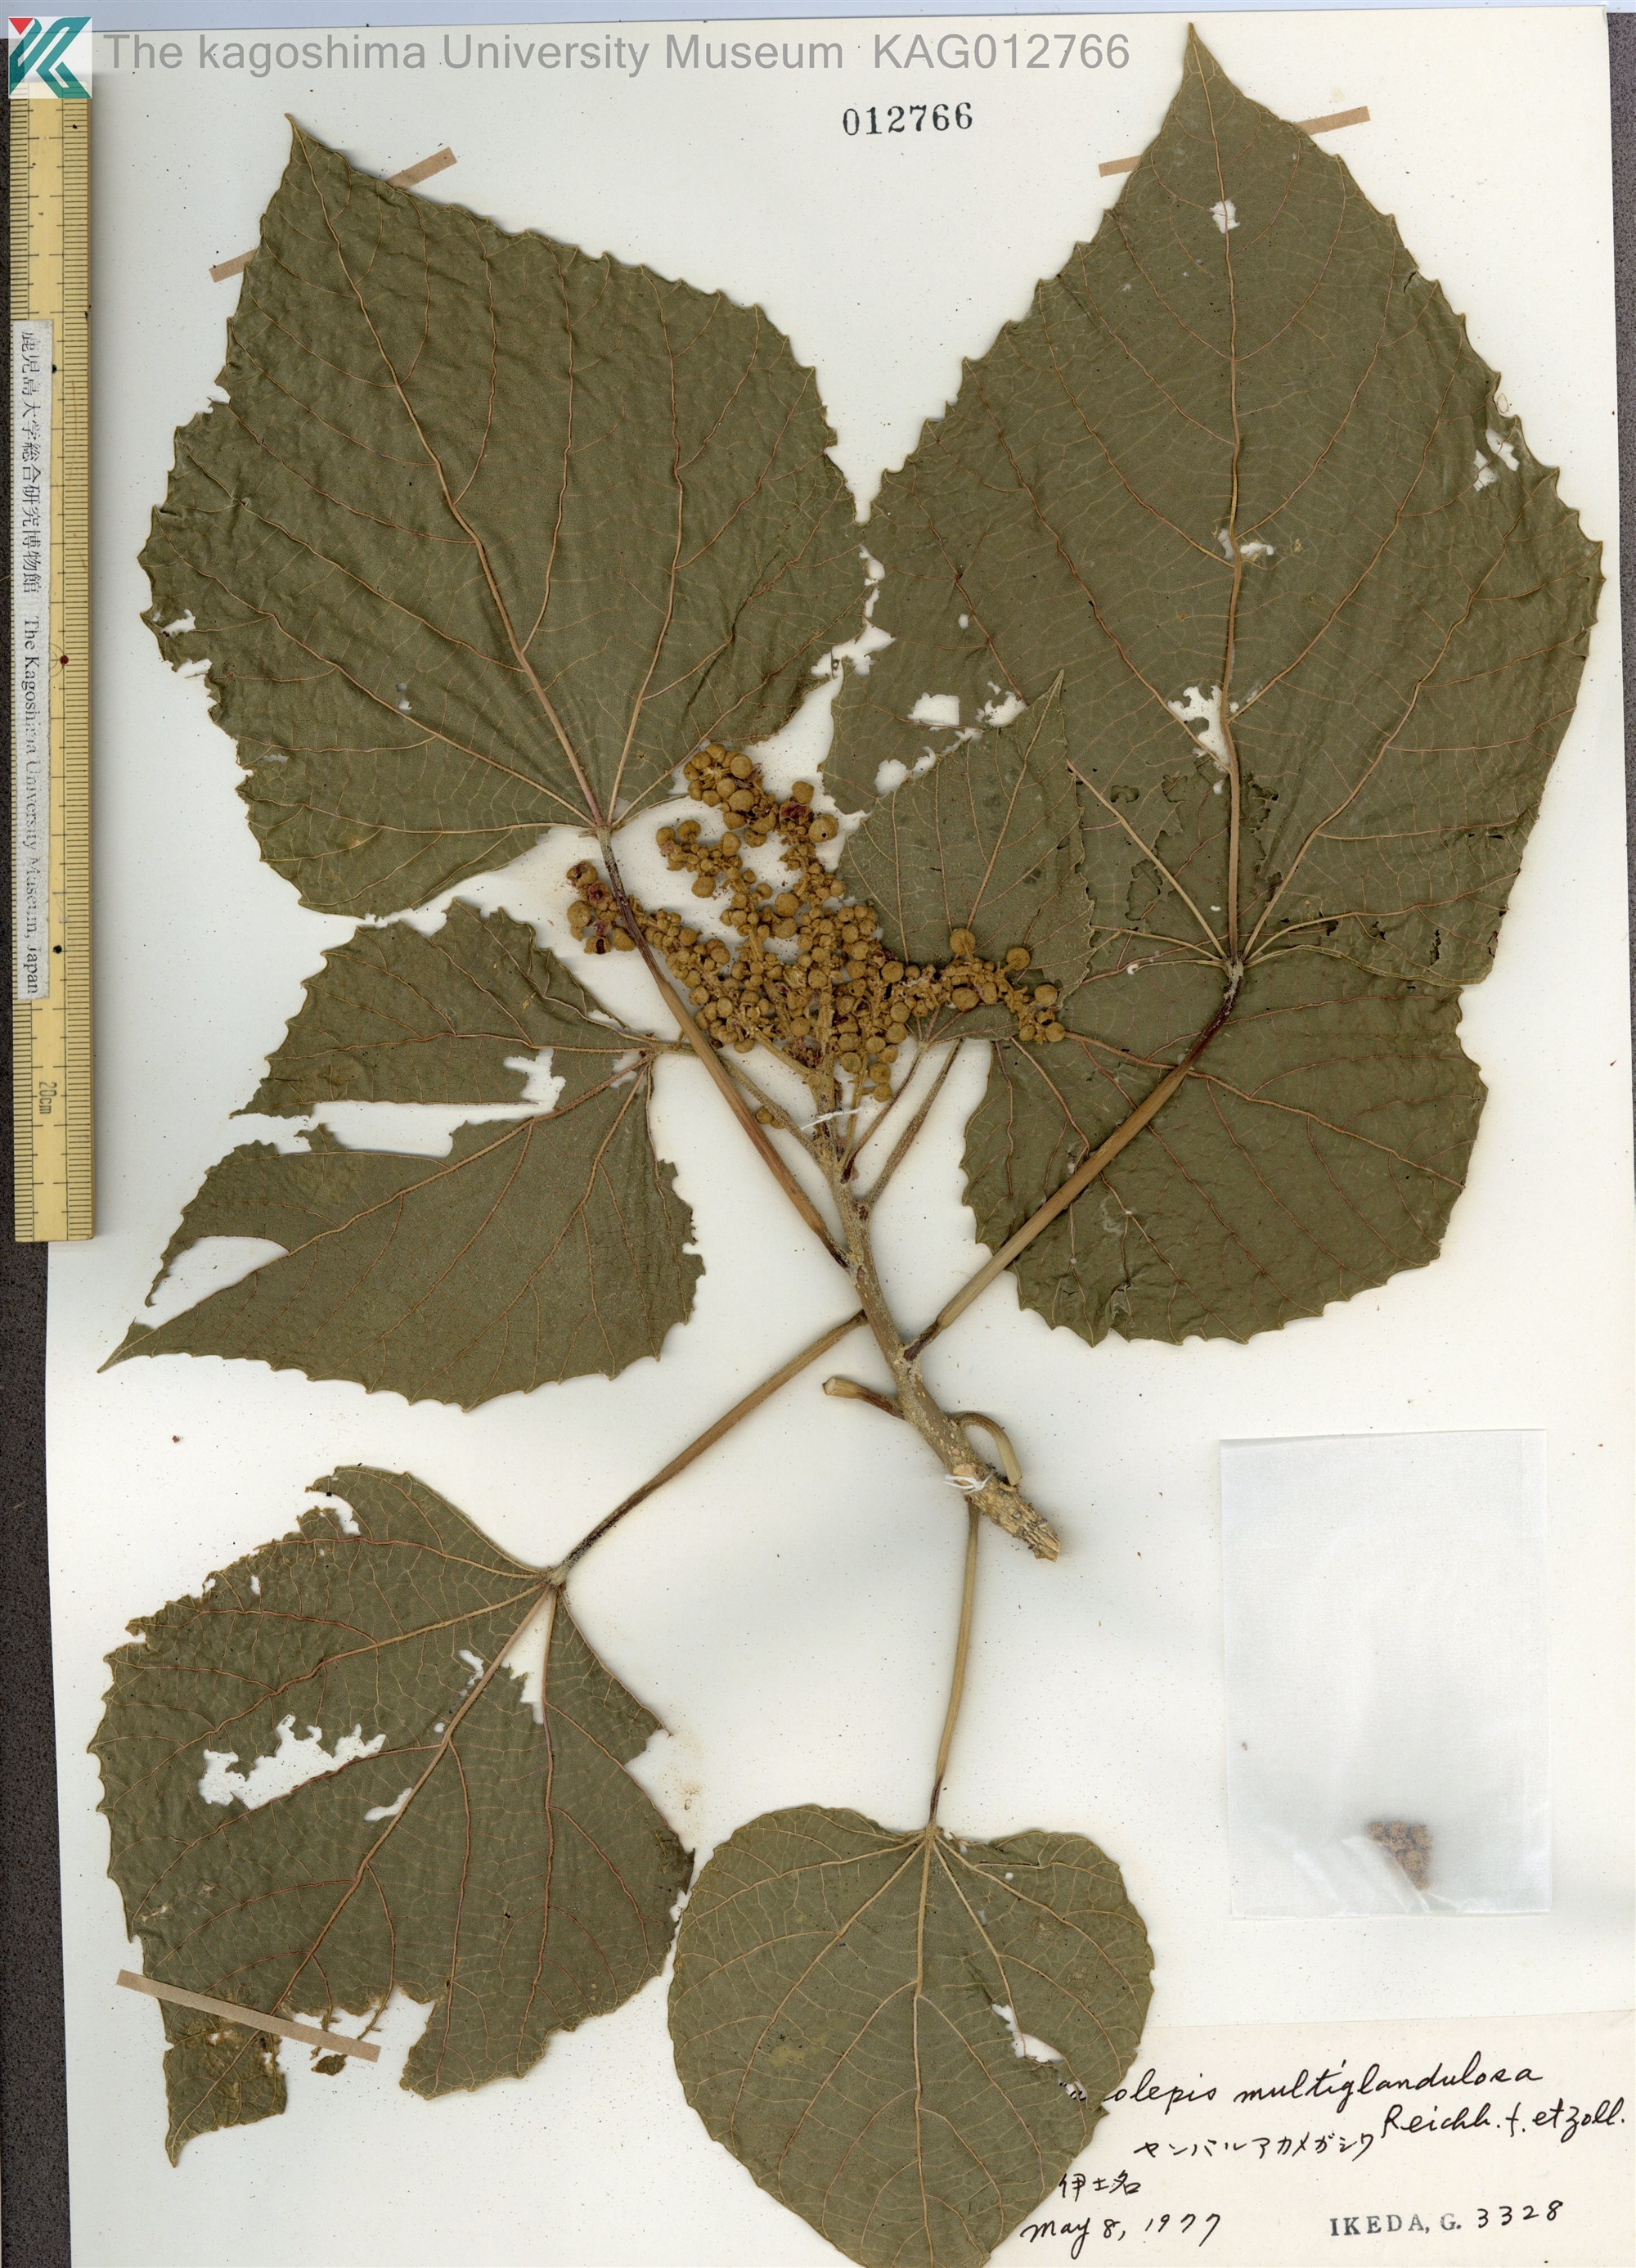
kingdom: Plantae
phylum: Tracheophyta
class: Magnoliopsida
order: Malpighiales
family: Euphorbiaceae
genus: Melanolepis
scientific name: Melanolepis multiglandulosa
